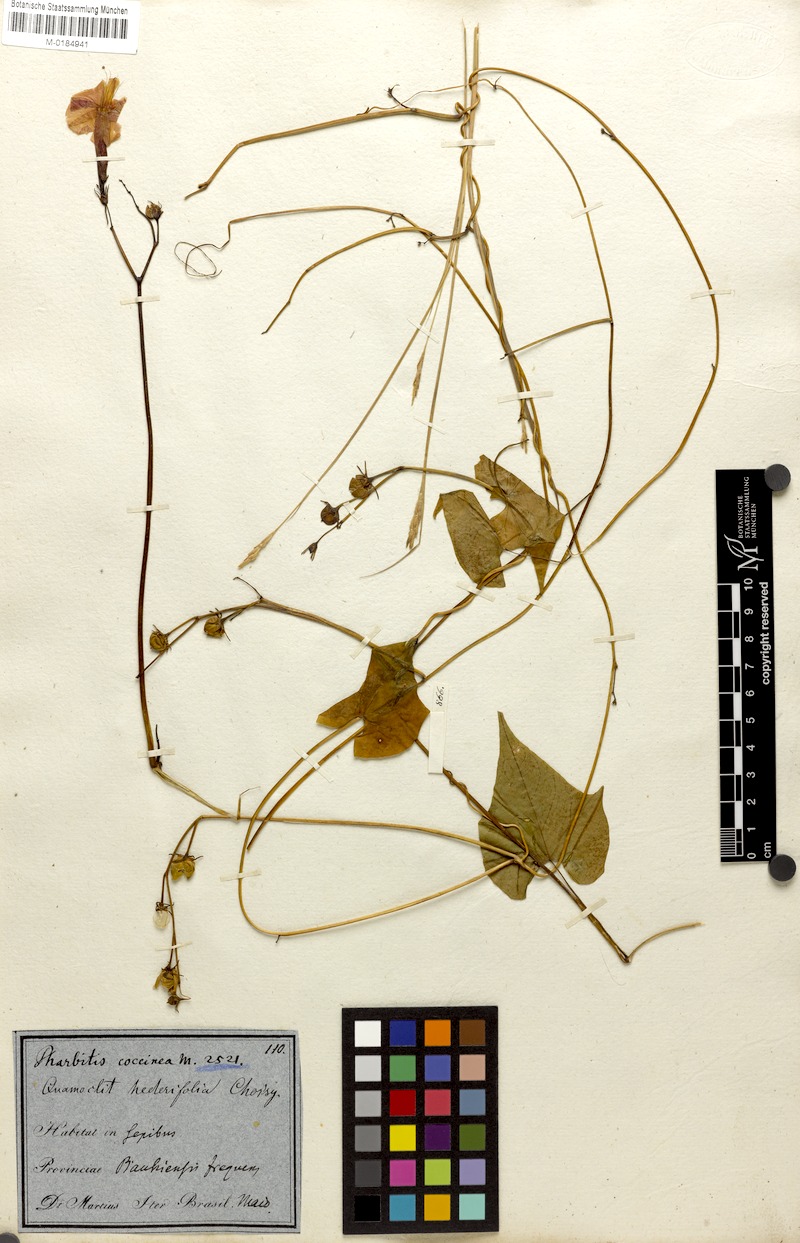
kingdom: Plantae
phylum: Tracheophyta
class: Magnoliopsida
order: Solanales
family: Convolvulaceae
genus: Ipomoea
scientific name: Ipomoea eriocarpa
